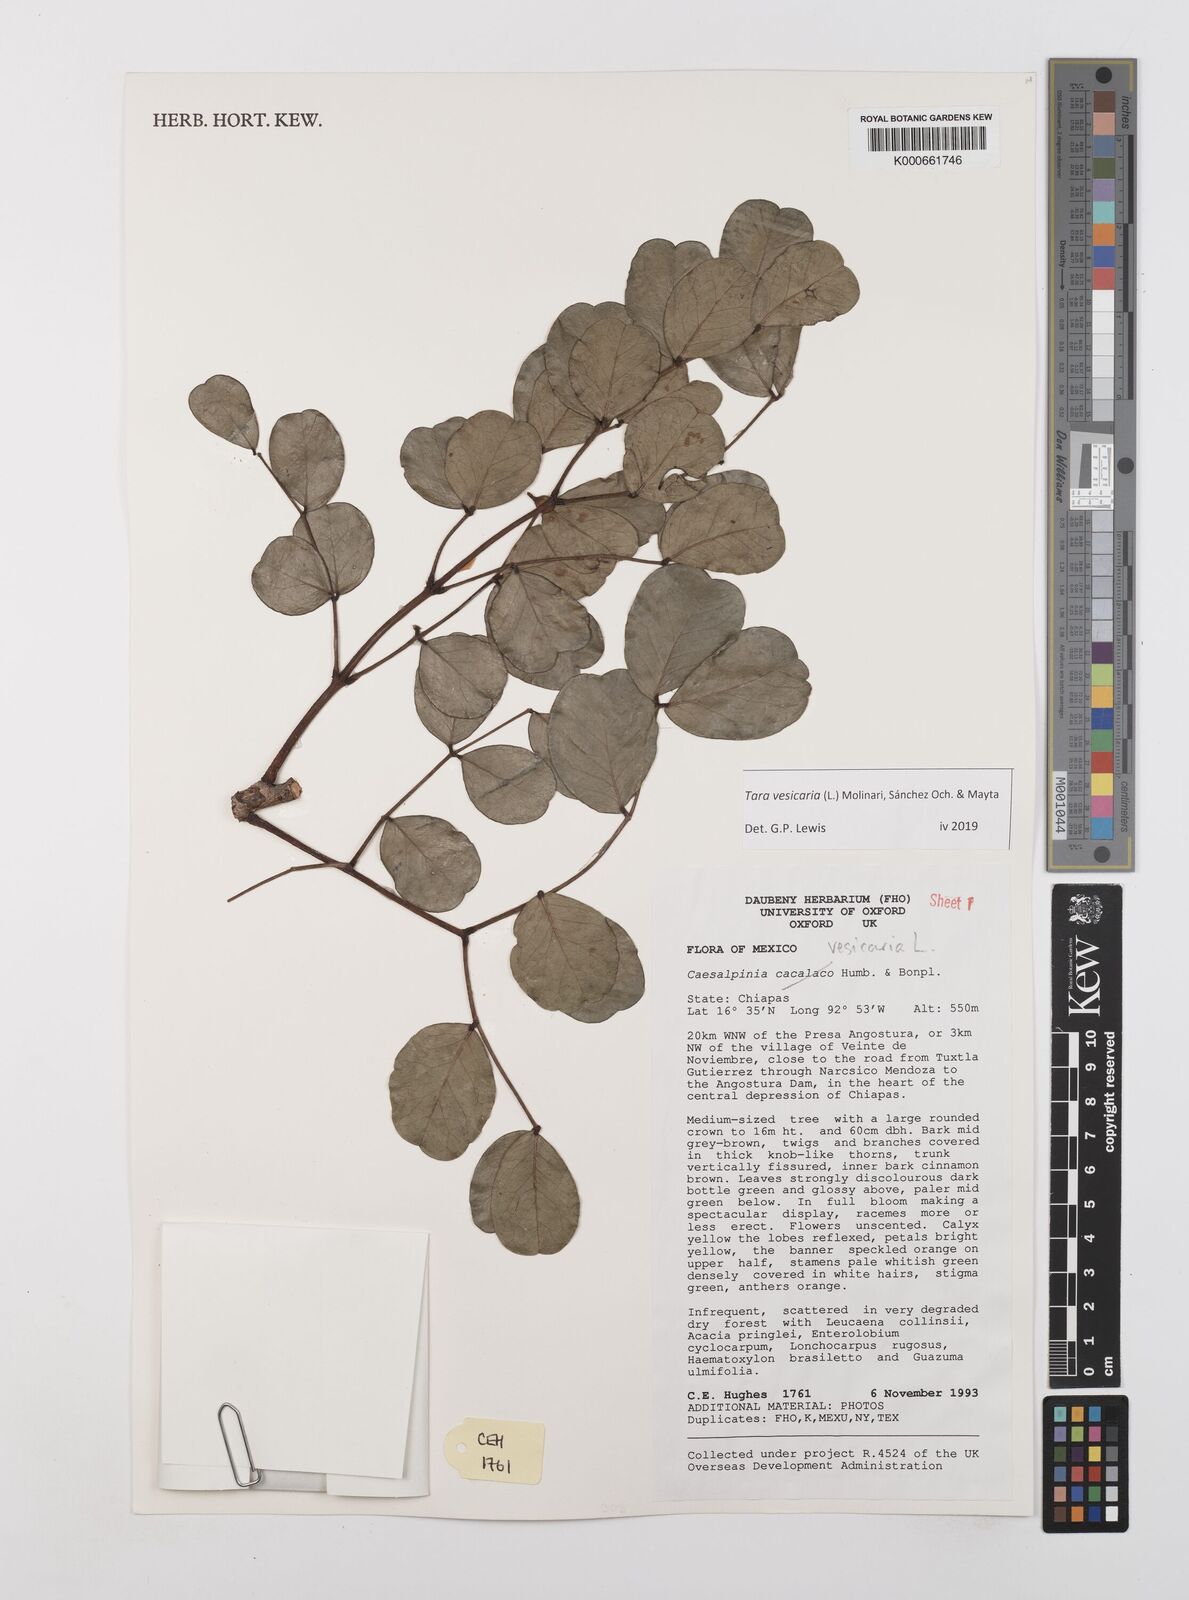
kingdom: Plantae
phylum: Tracheophyta
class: Magnoliopsida
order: Fabales
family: Fabaceae
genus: Tara
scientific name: Tara vesicaria
